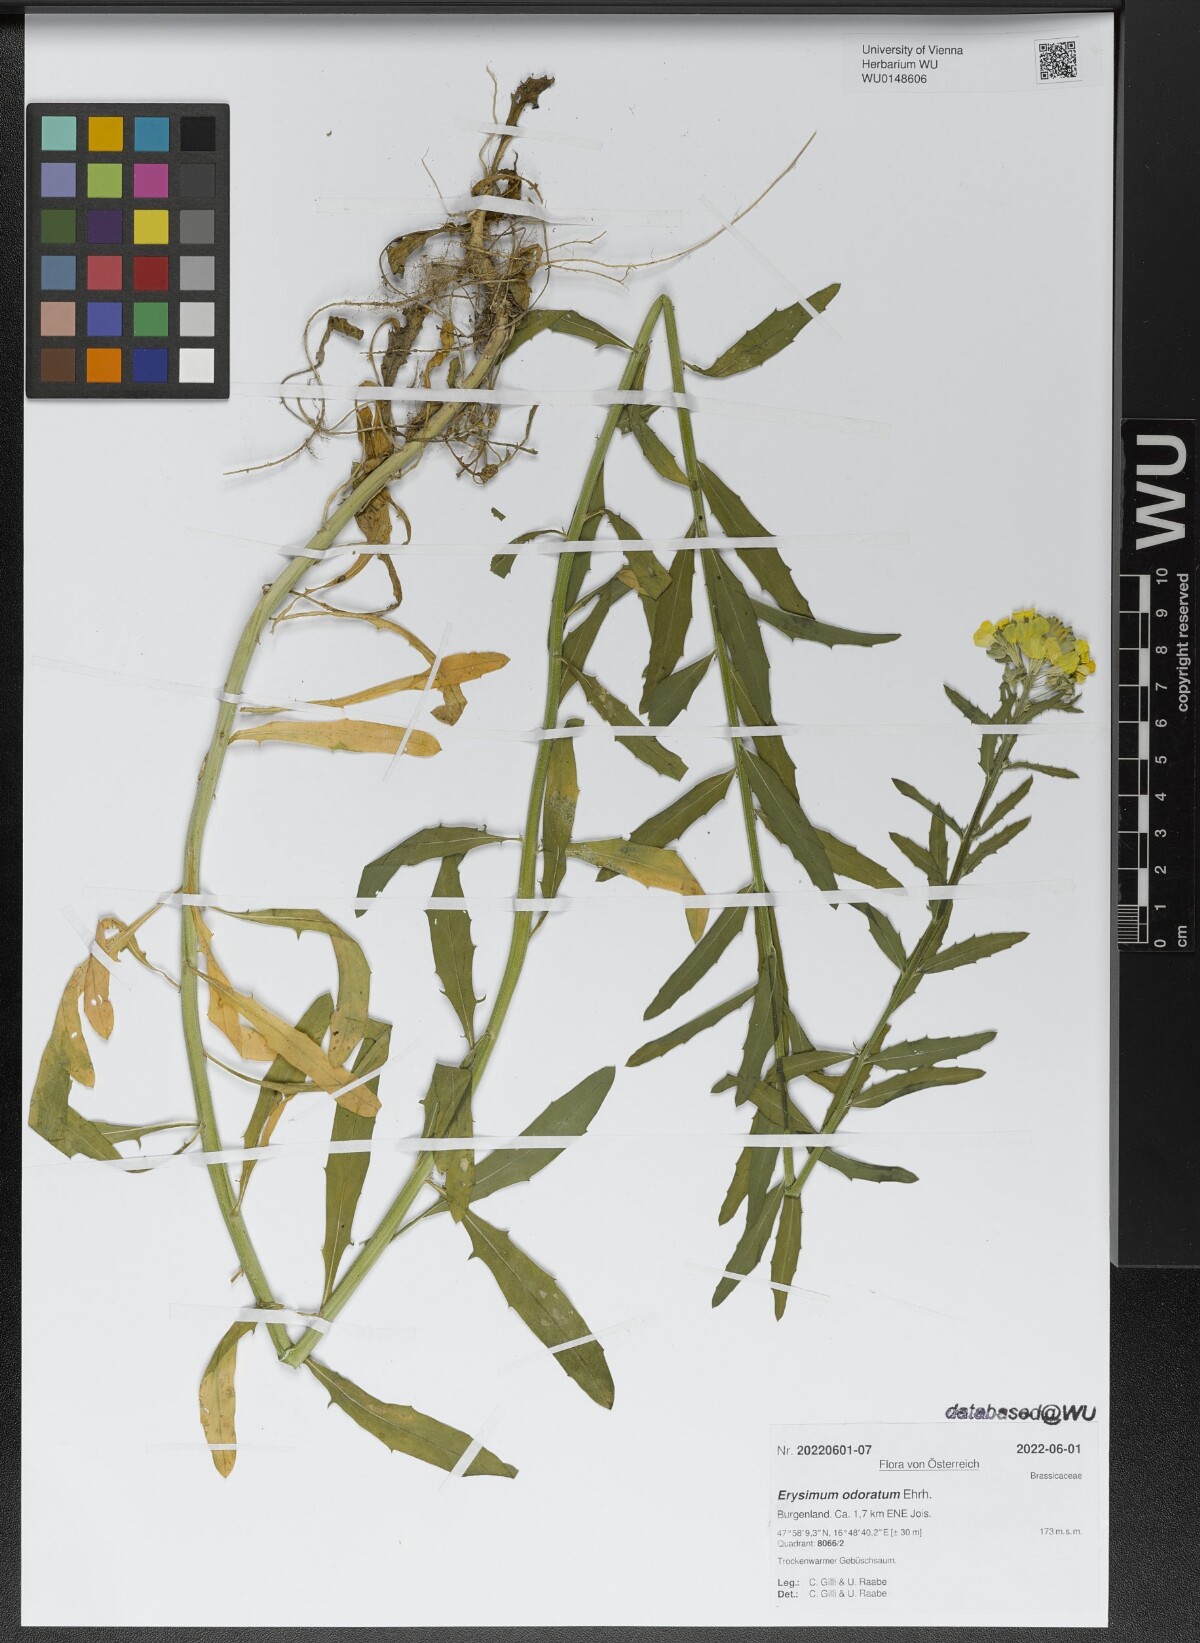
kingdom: Plantae
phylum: Tracheophyta
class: Magnoliopsida
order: Brassicales
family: Brassicaceae
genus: Erysimum
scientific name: Erysimum odoratum
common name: Smelly wallflower
